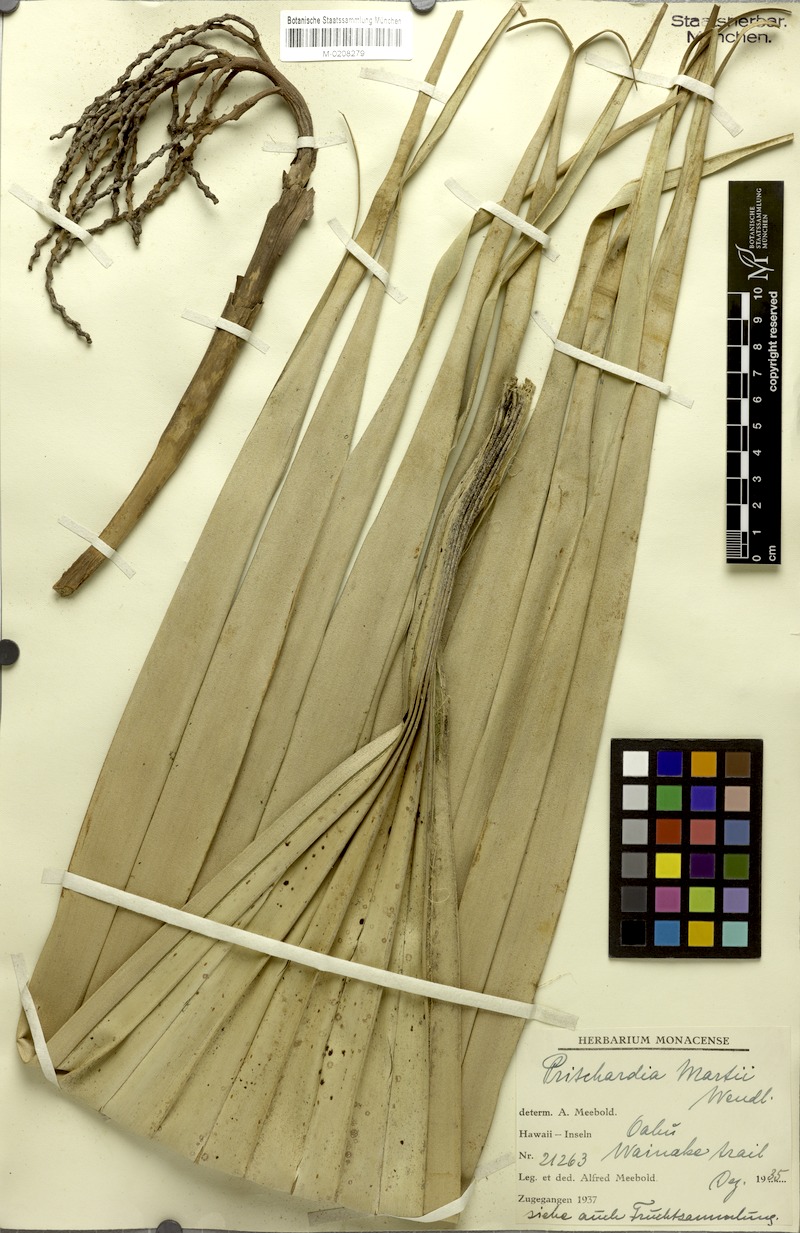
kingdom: Plantae
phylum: Tracheophyta
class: Liliopsida
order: Arecales
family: Arecaceae
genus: Pritchardia
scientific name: Pritchardia martii
